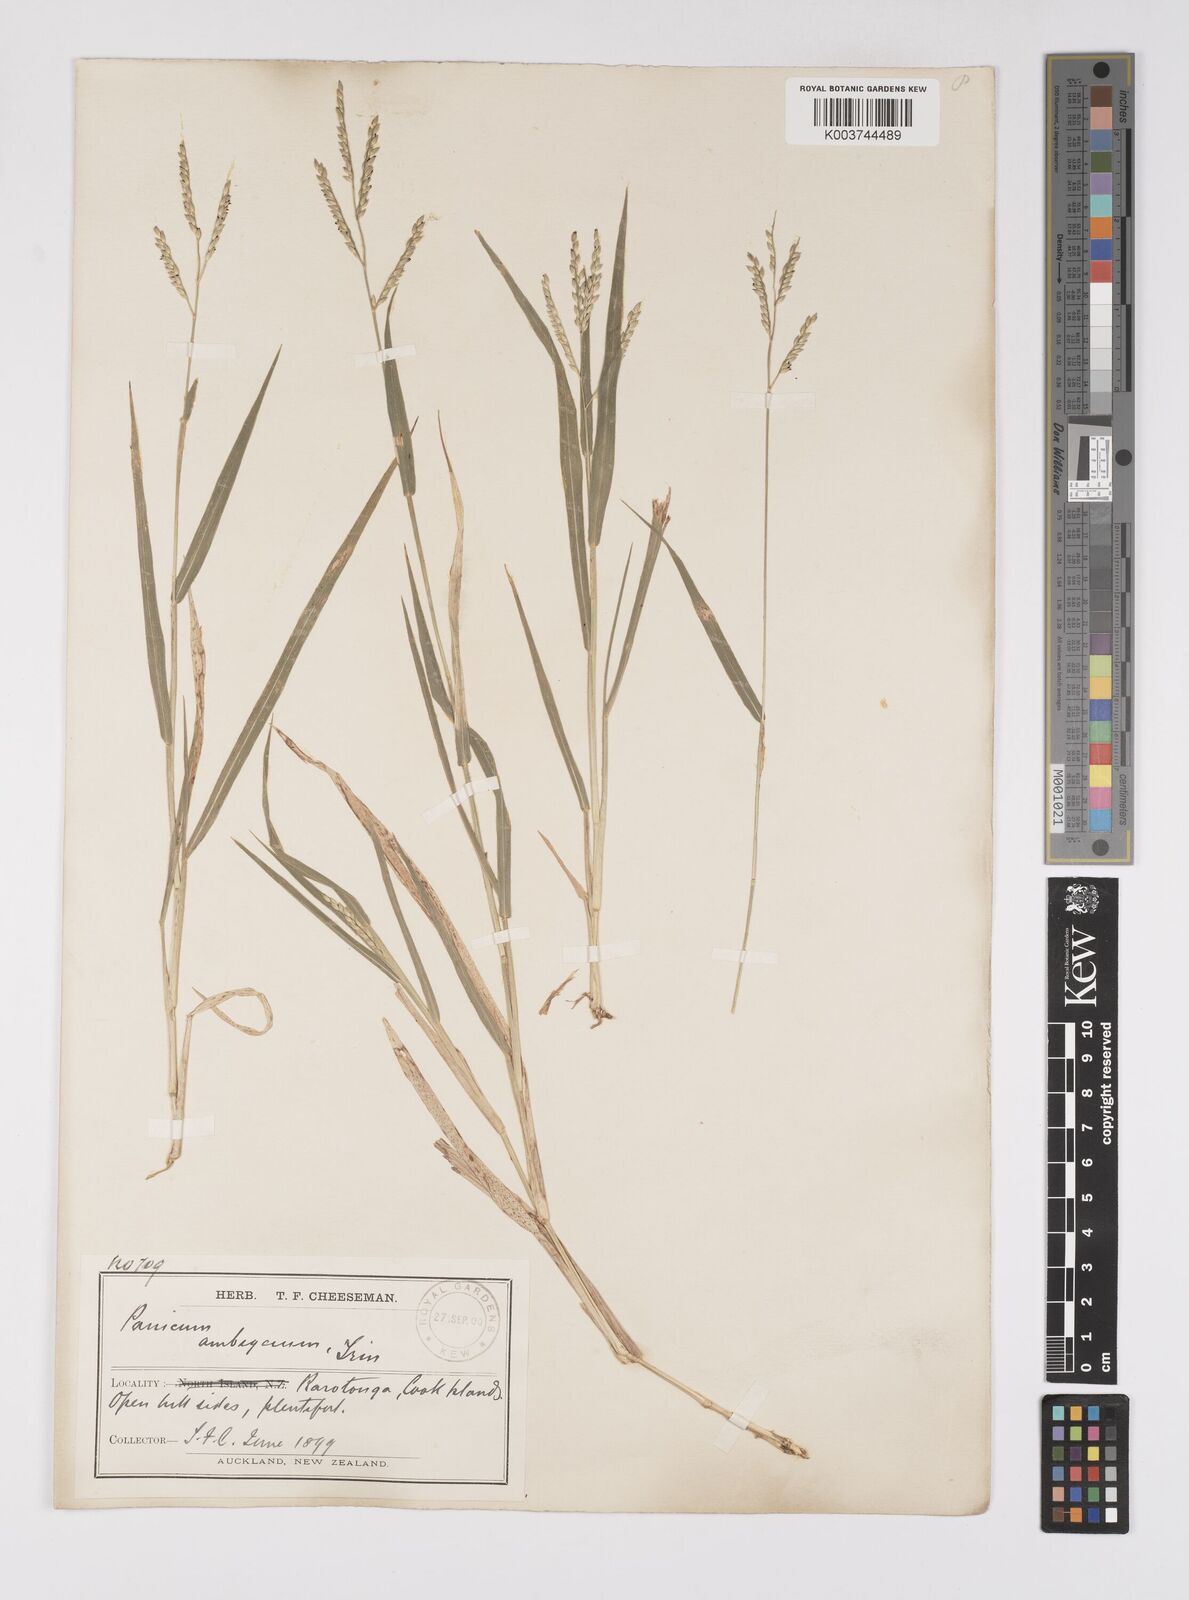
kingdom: Plantae
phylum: Tracheophyta
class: Liliopsida
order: Poales
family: Poaceae
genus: Urochloa
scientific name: Urochloa glumaris
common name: Thurston grass
